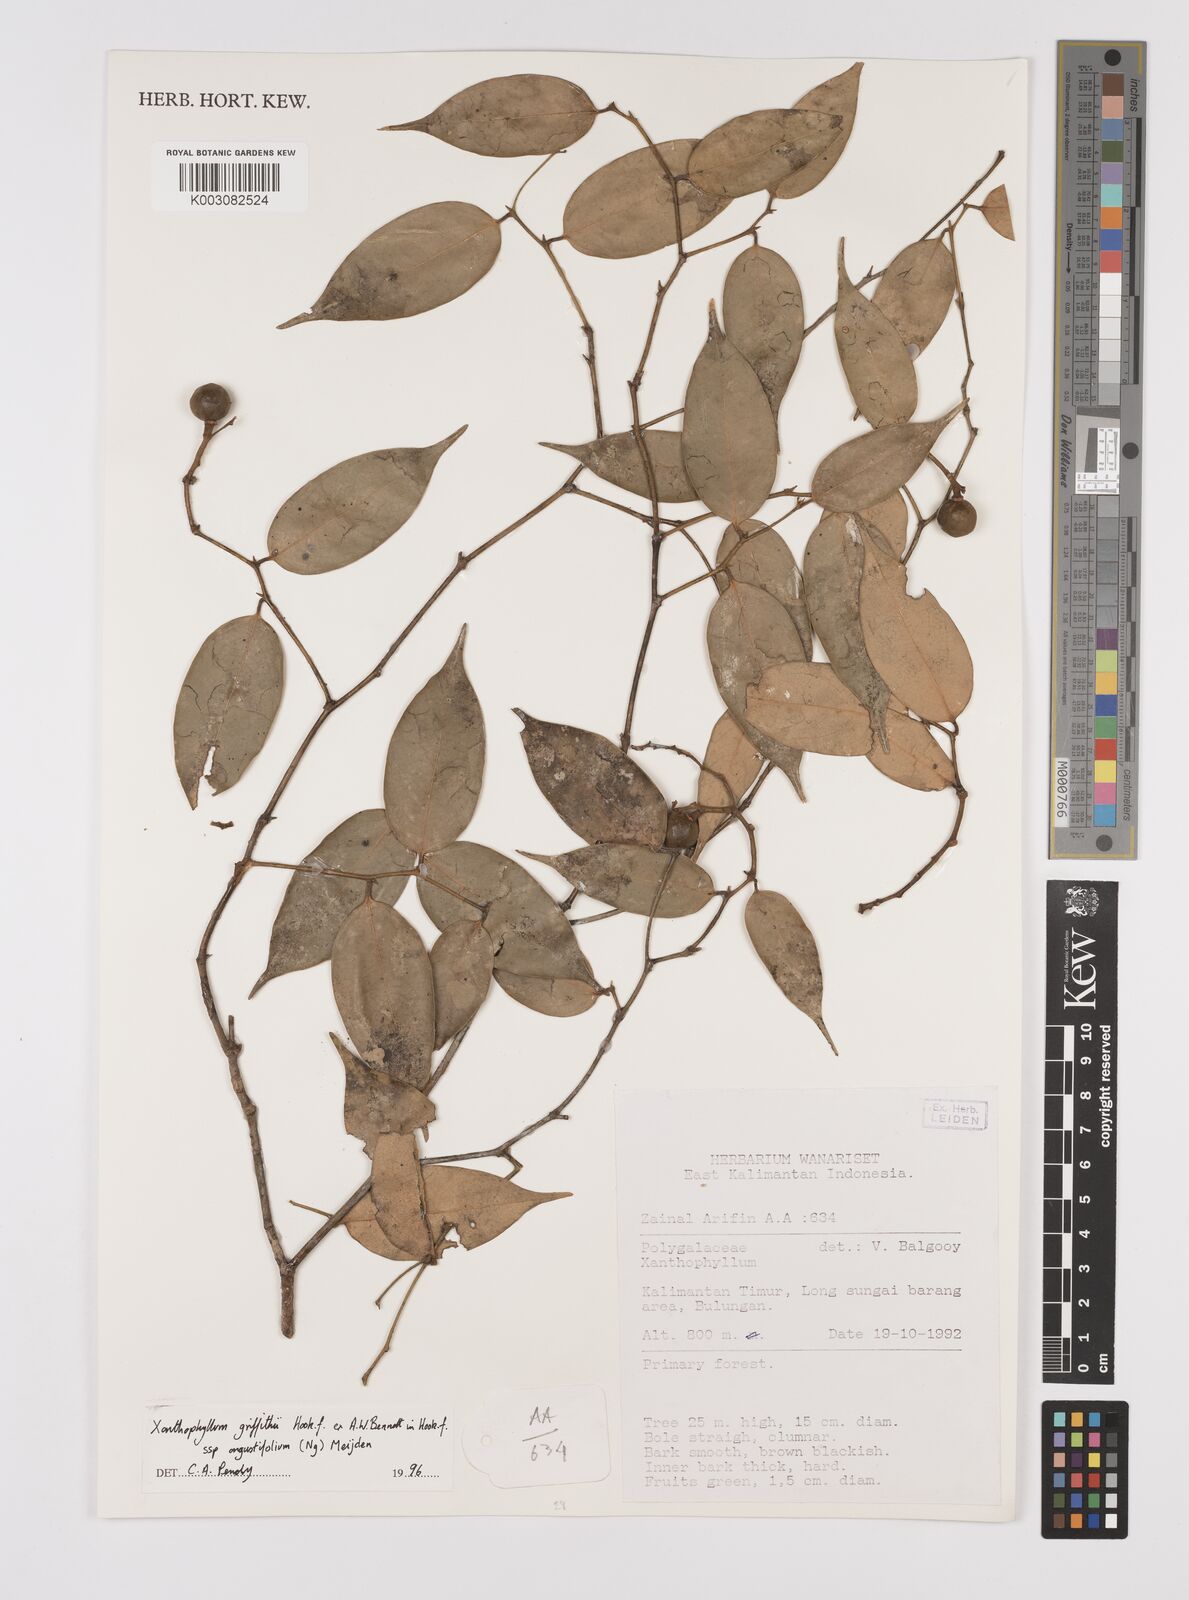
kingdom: Plantae
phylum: Tracheophyta
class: Magnoliopsida
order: Fabales
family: Polygalaceae
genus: Xanthophyllum
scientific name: Xanthophyllum griffithii
